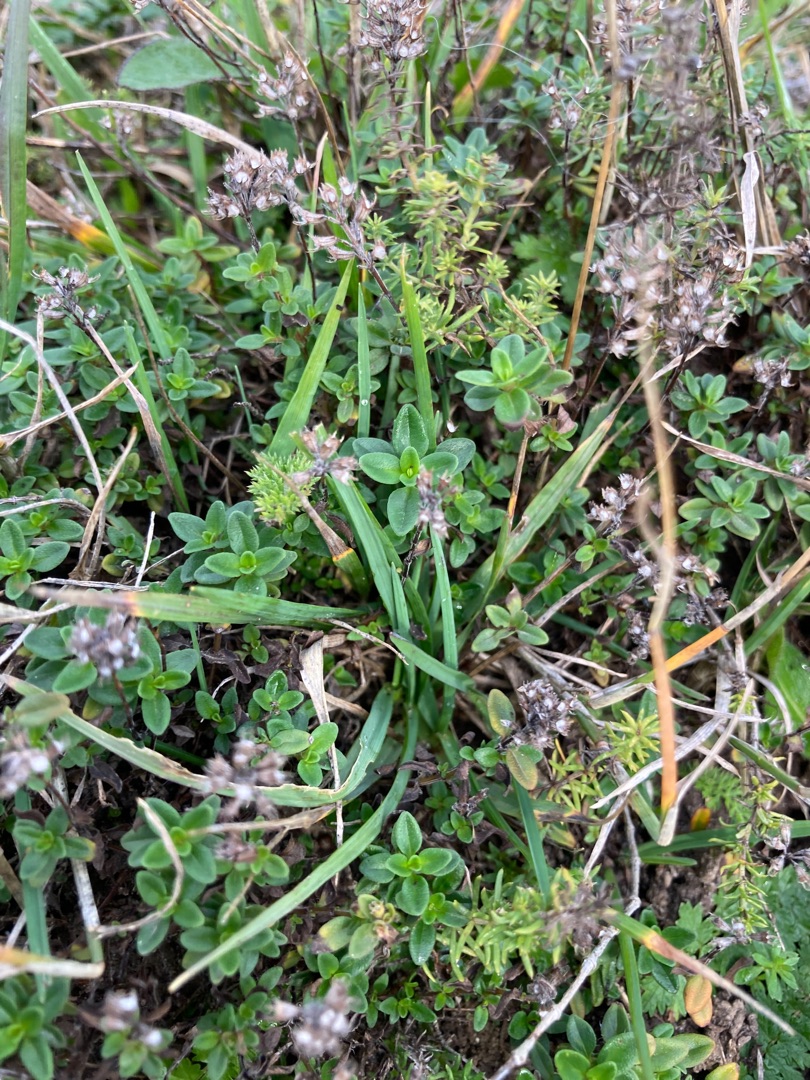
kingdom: Plantae
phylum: Tracheophyta
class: Magnoliopsida
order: Lamiales
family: Lamiaceae
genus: Thymus
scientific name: Thymus pulegioides
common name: Bredbladet timian
